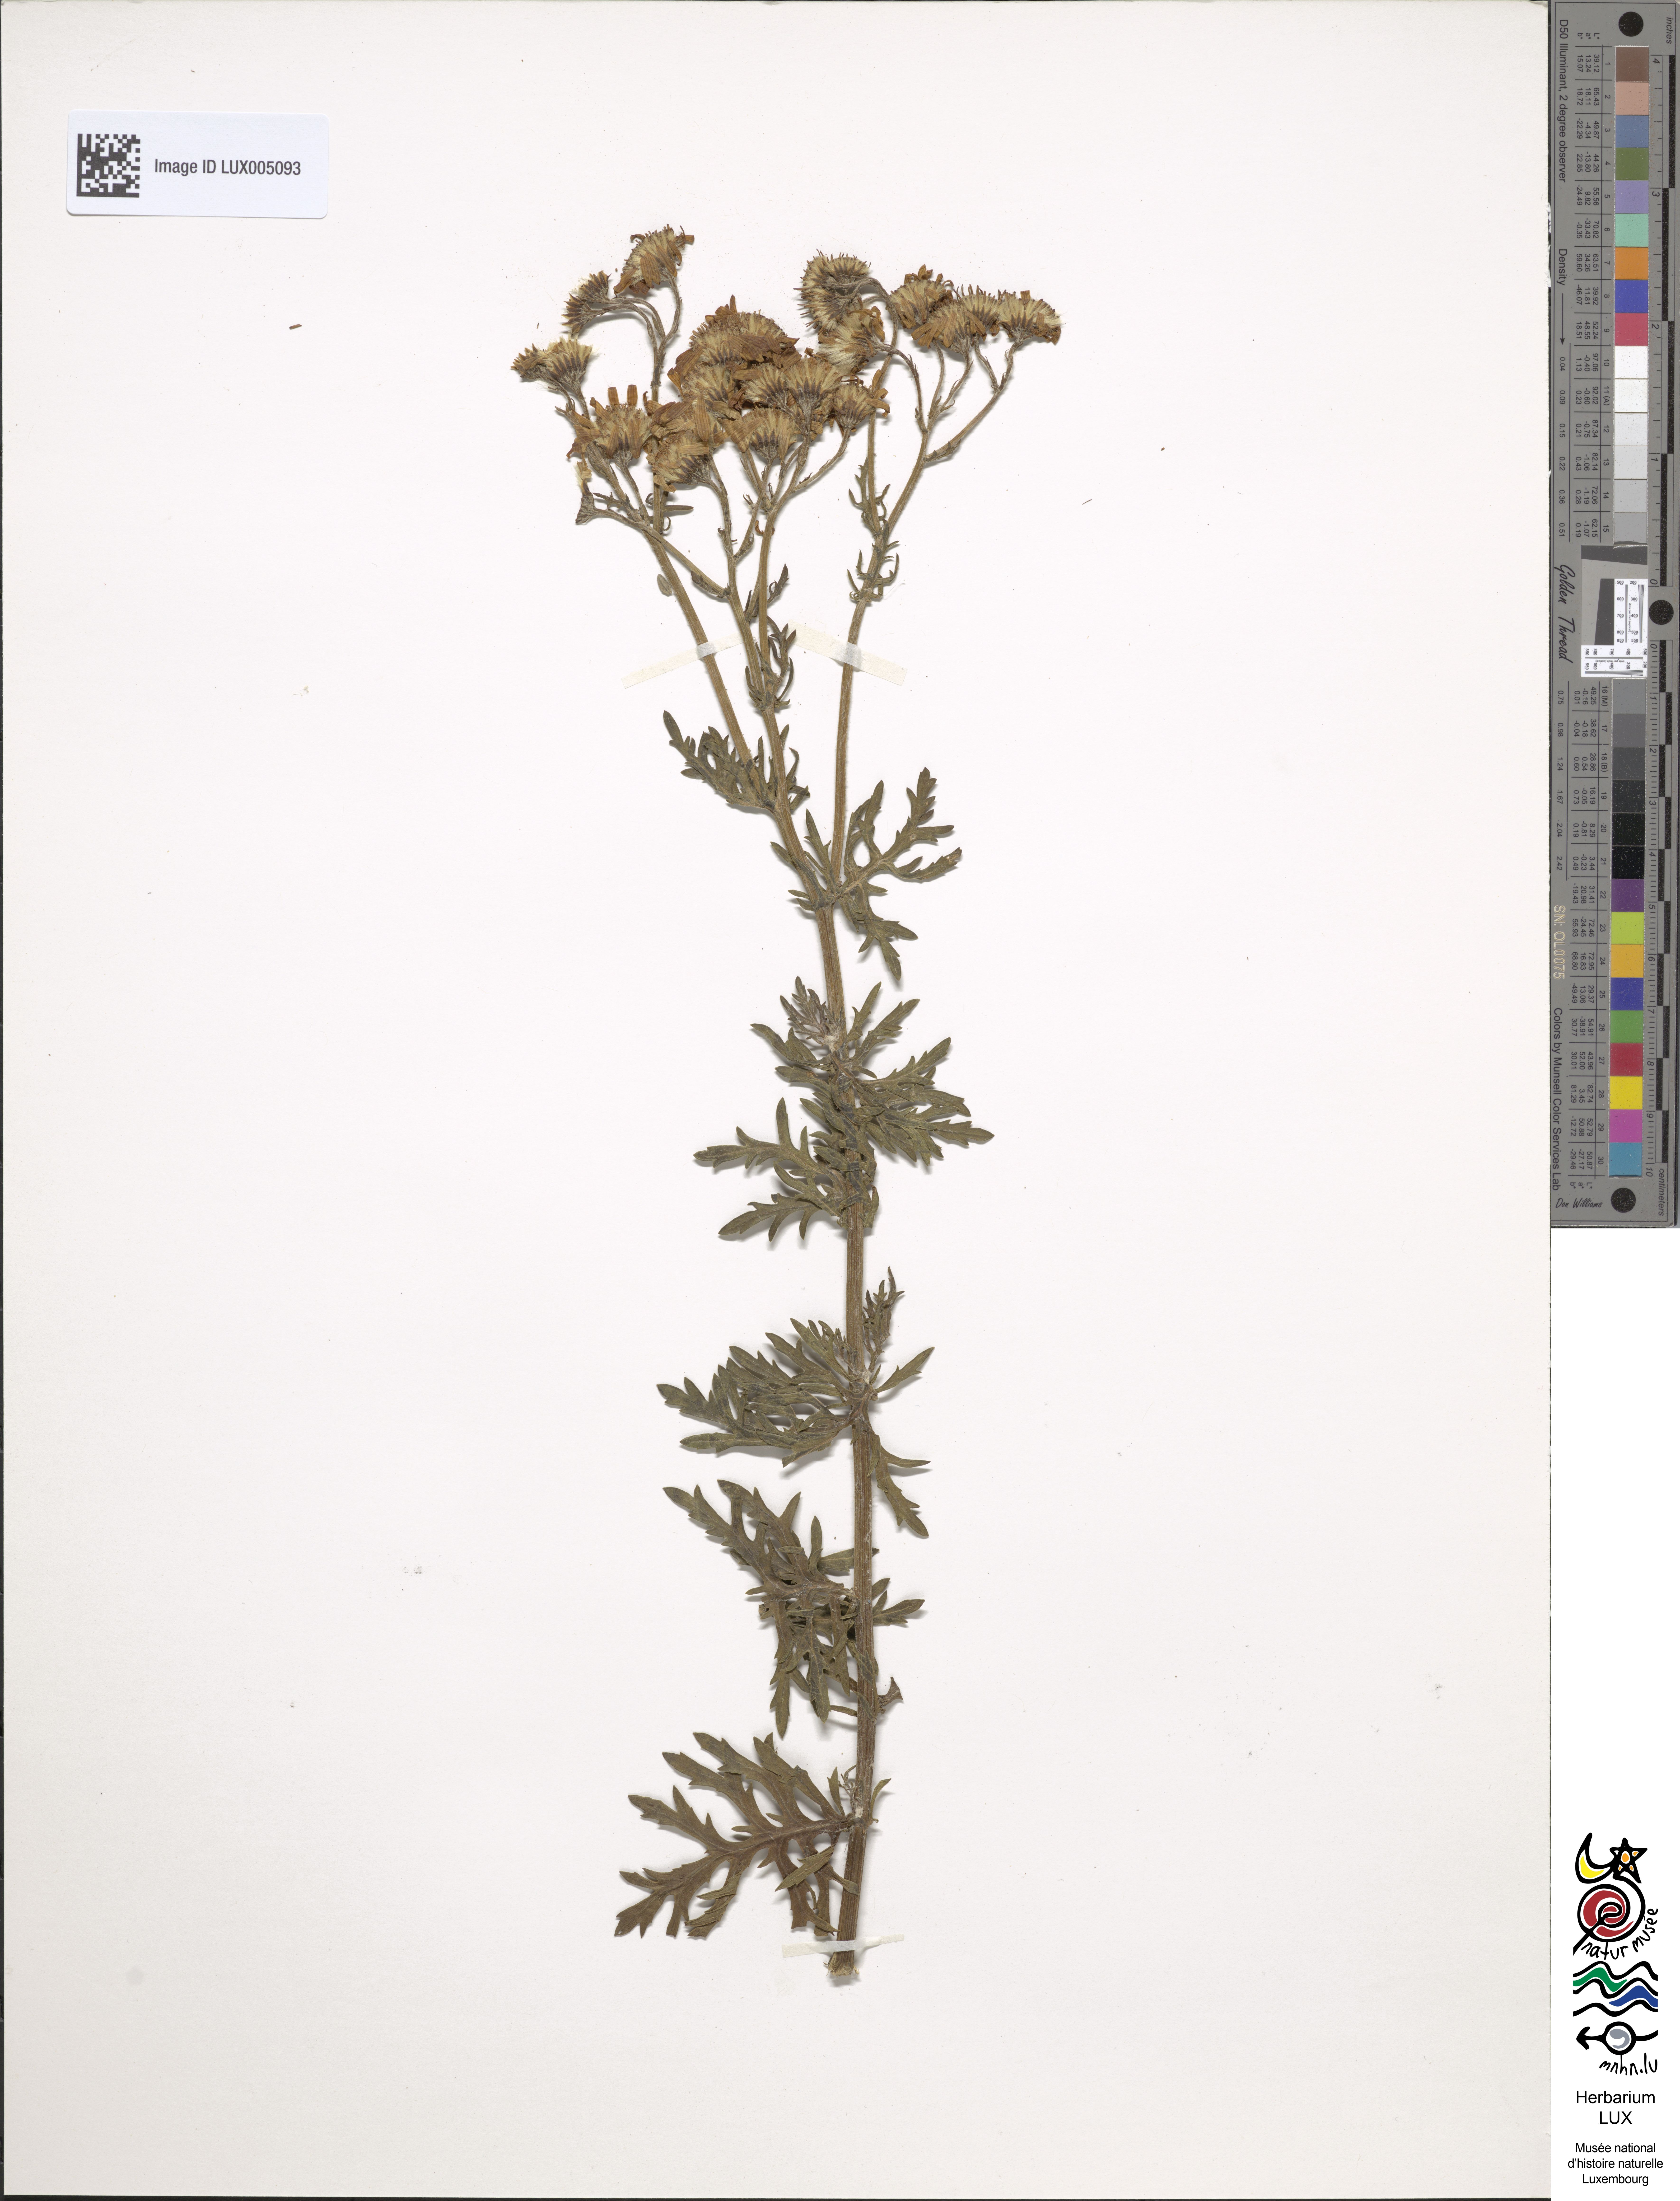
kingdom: Plantae
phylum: Tracheophyta
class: Magnoliopsida
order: Asterales
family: Asteraceae
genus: Jacobaea
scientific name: Jacobaea erucifolia
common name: Hoary ragwort
